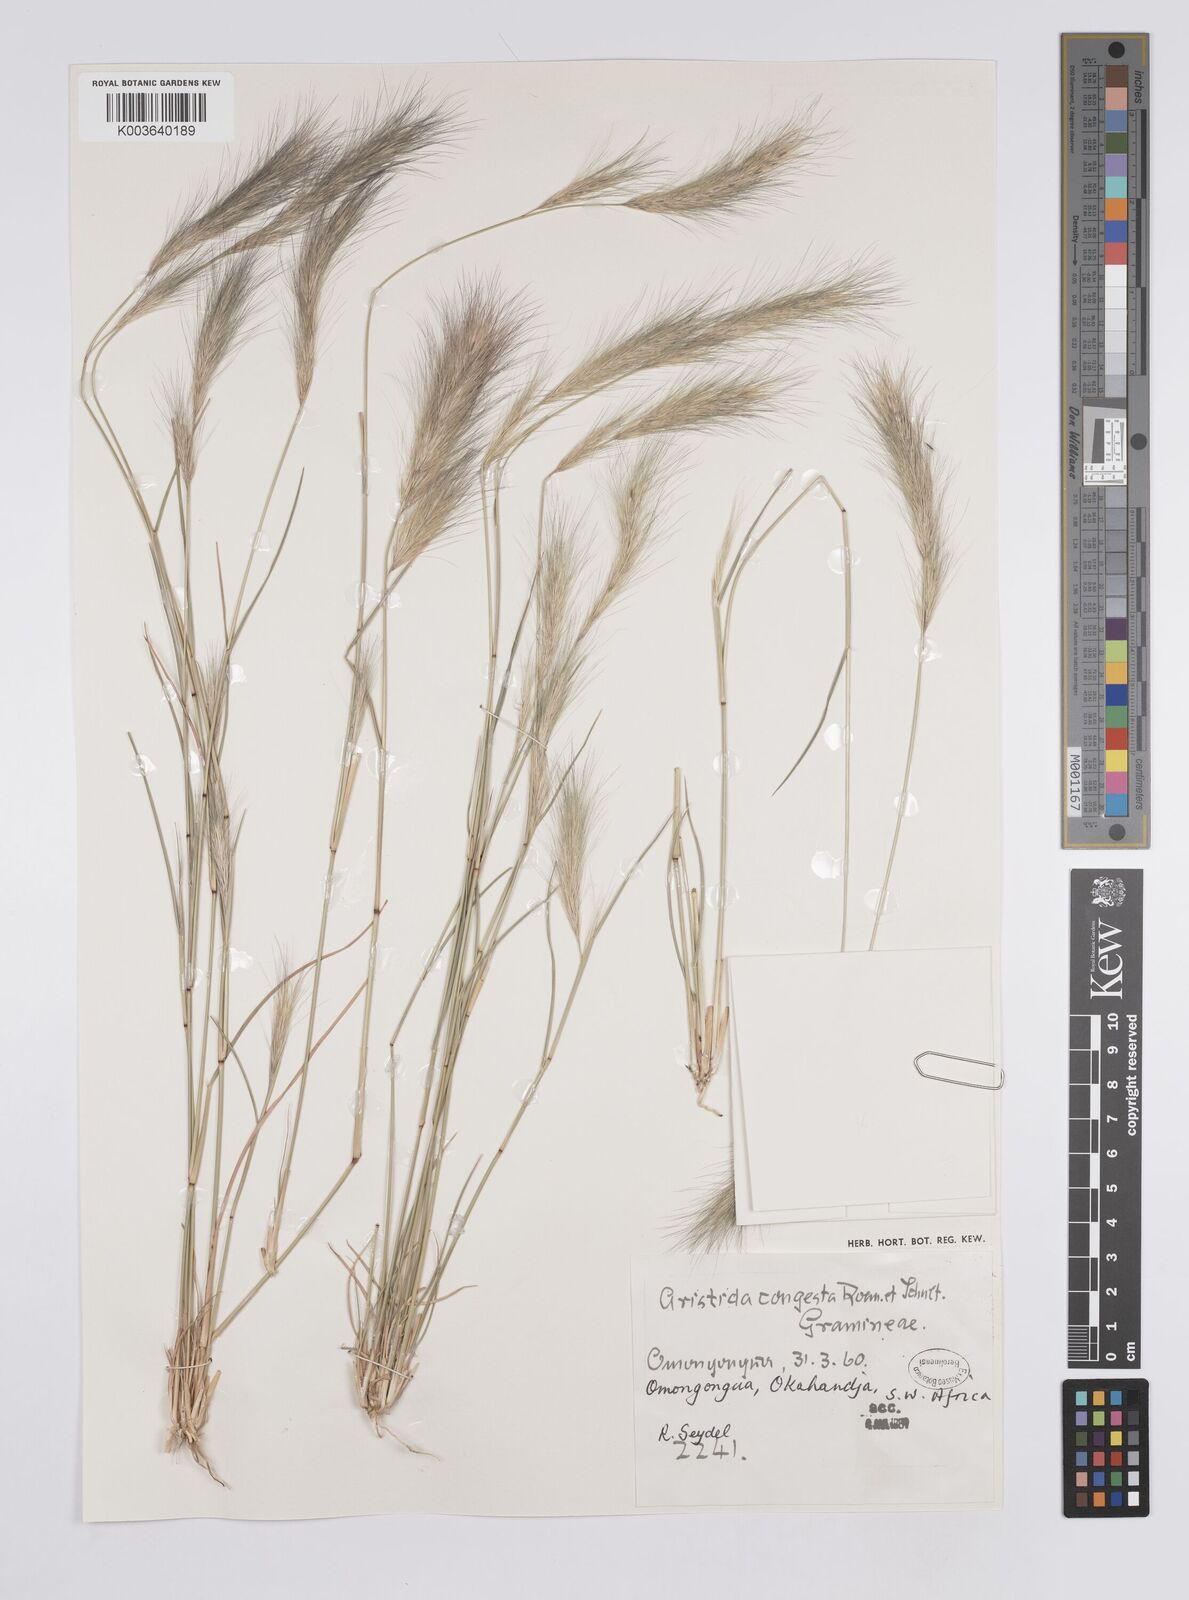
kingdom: Plantae
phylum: Tracheophyta
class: Liliopsida
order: Poales
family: Poaceae
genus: Aristida
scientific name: Aristida congesta
